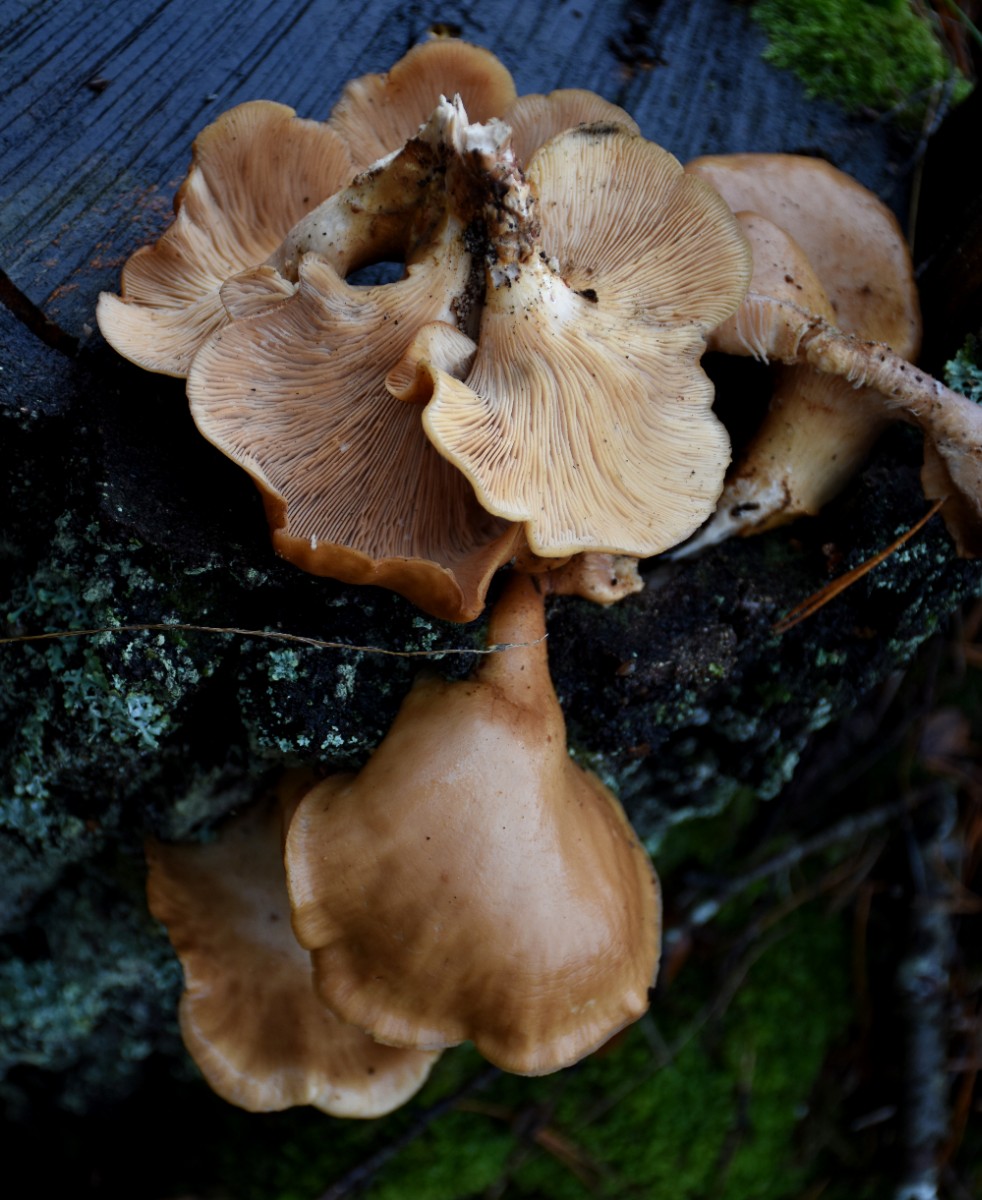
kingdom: Fungi
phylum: Basidiomycota
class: Agaricomycetes
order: Polyporales
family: Panaceae
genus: Panus
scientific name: Panus conchatus
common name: filtstokket læderhat
